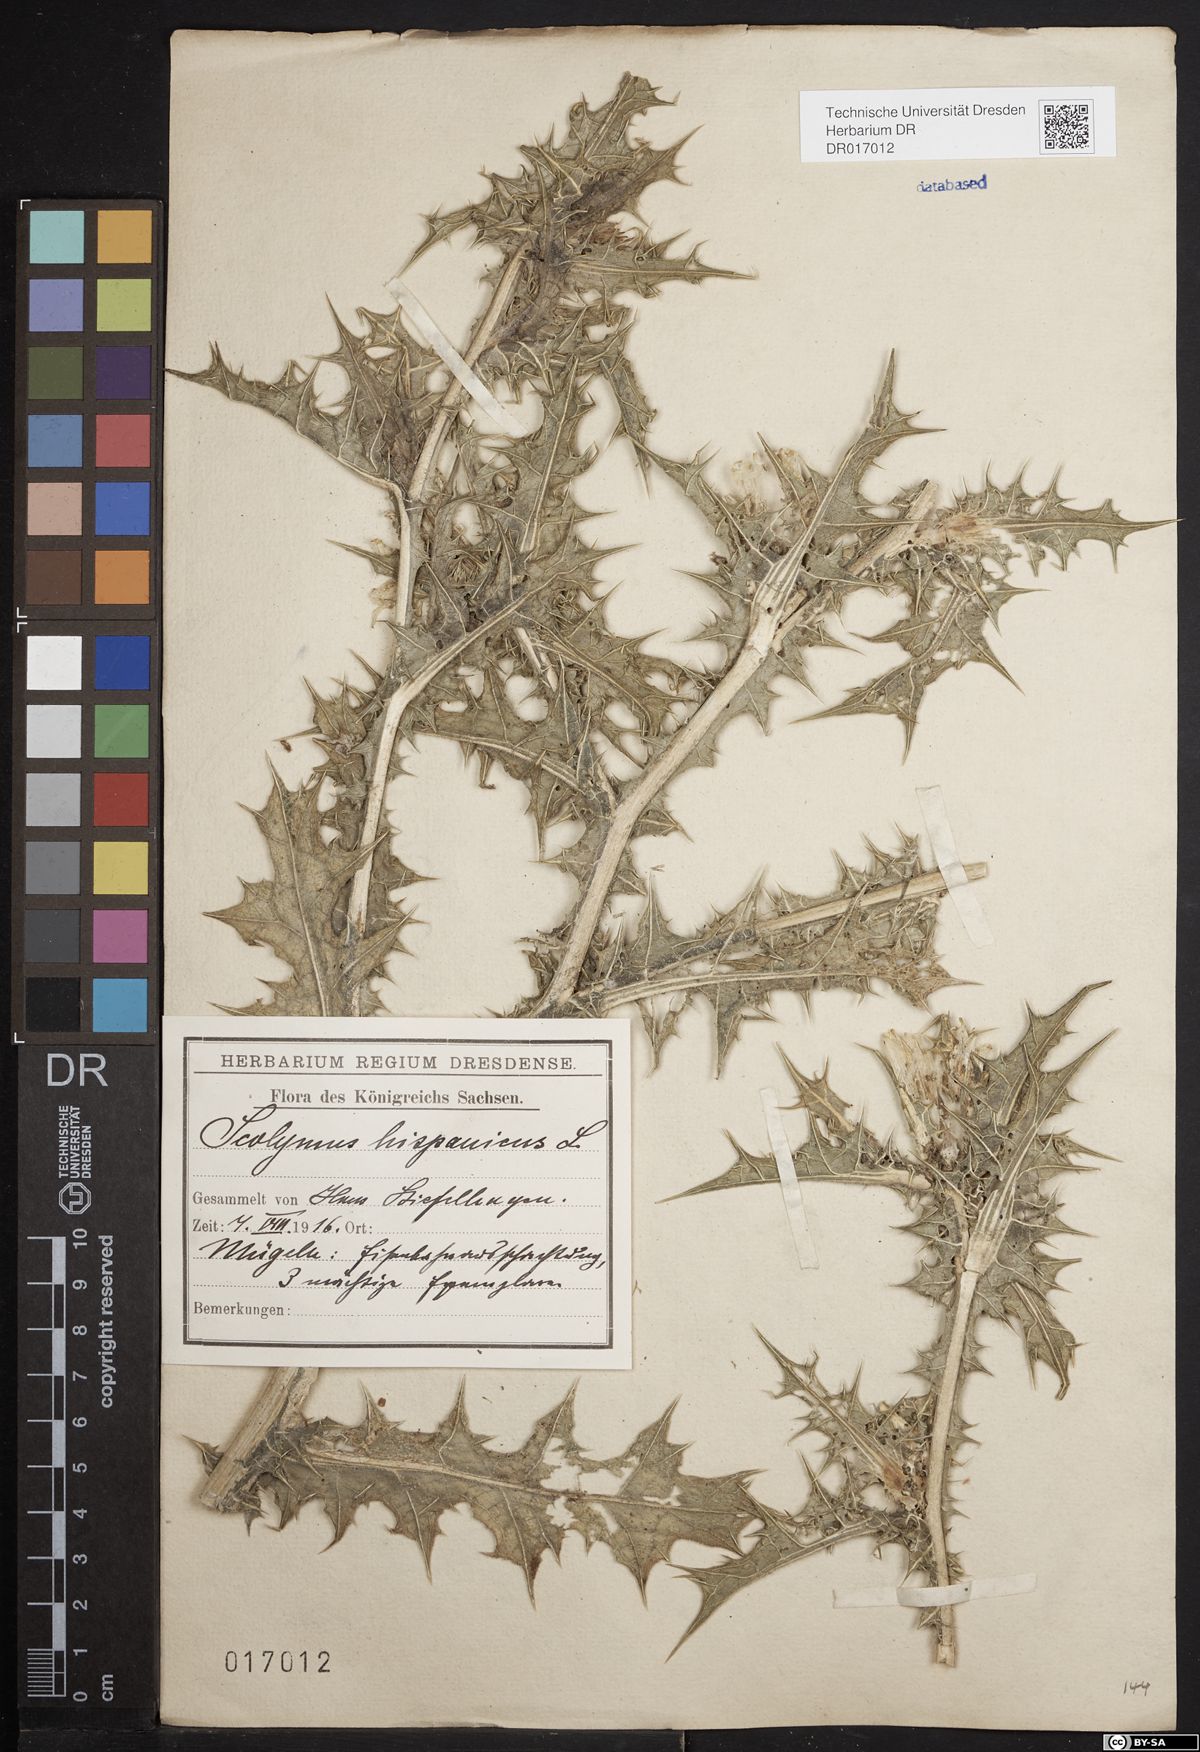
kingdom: Plantae
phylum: Tracheophyta
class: Magnoliopsida
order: Asterales
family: Asteraceae
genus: Scolymus
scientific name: Scolymus hispanicus
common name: Golden thistle
